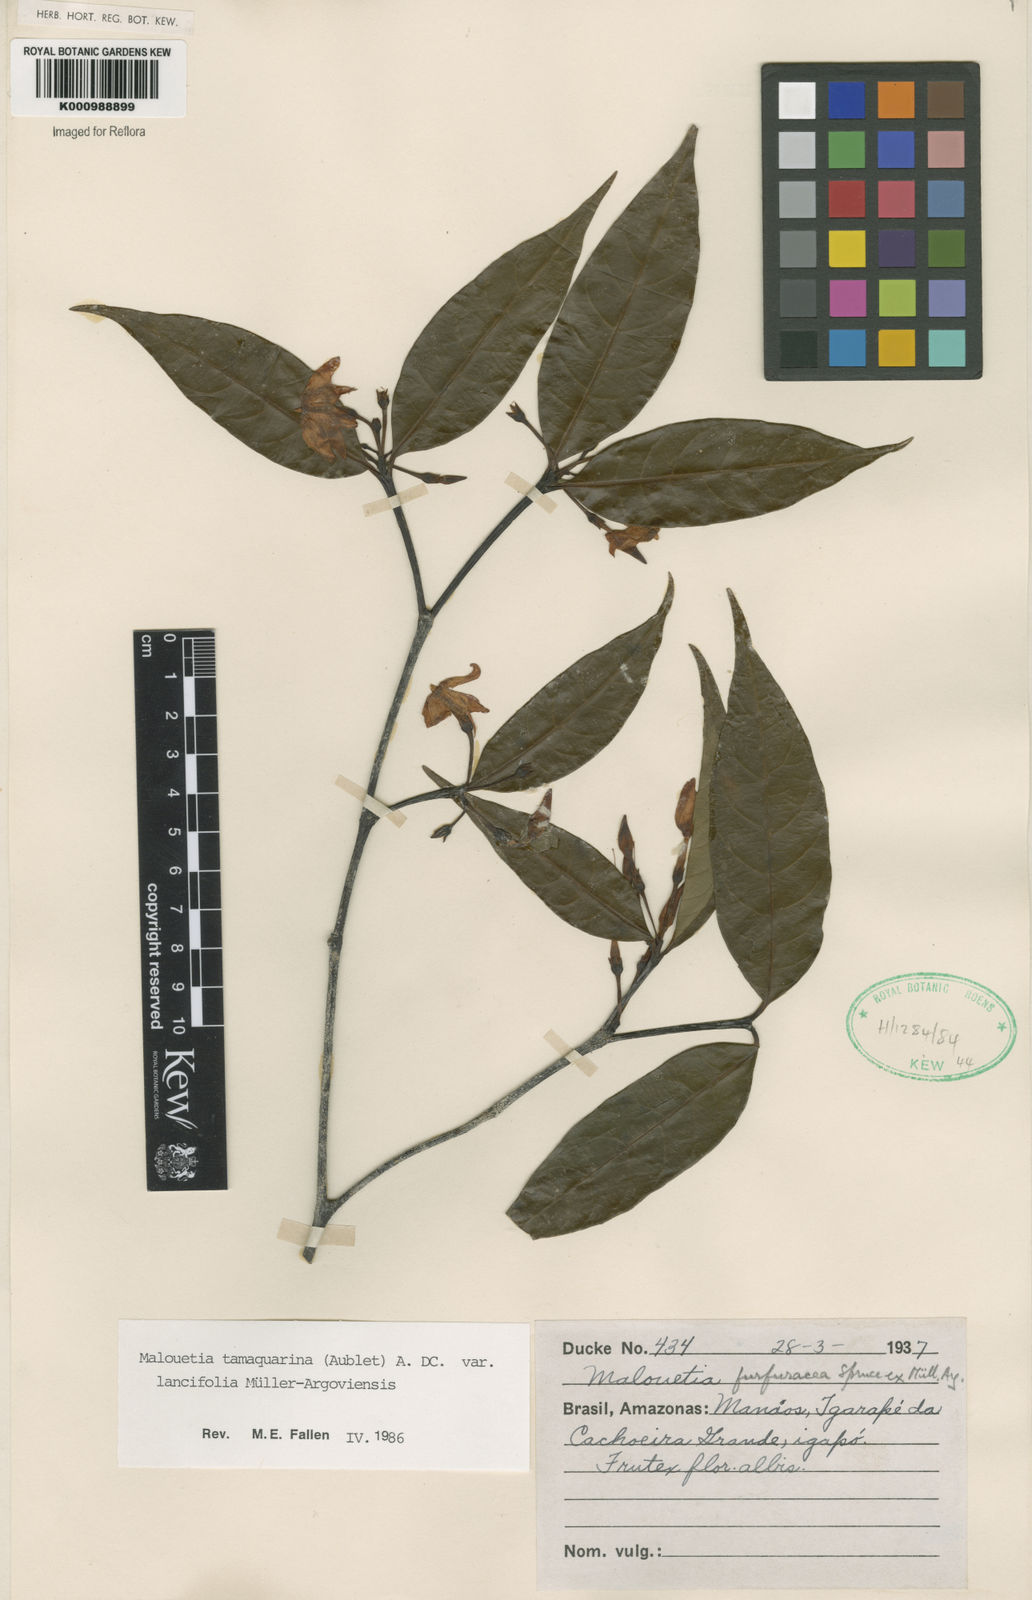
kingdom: Plantae
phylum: Tracheophyta
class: Magnoliopsida
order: Gentianales
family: Apocynaceae
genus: Malouetia
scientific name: Malouetia tamaquarina
